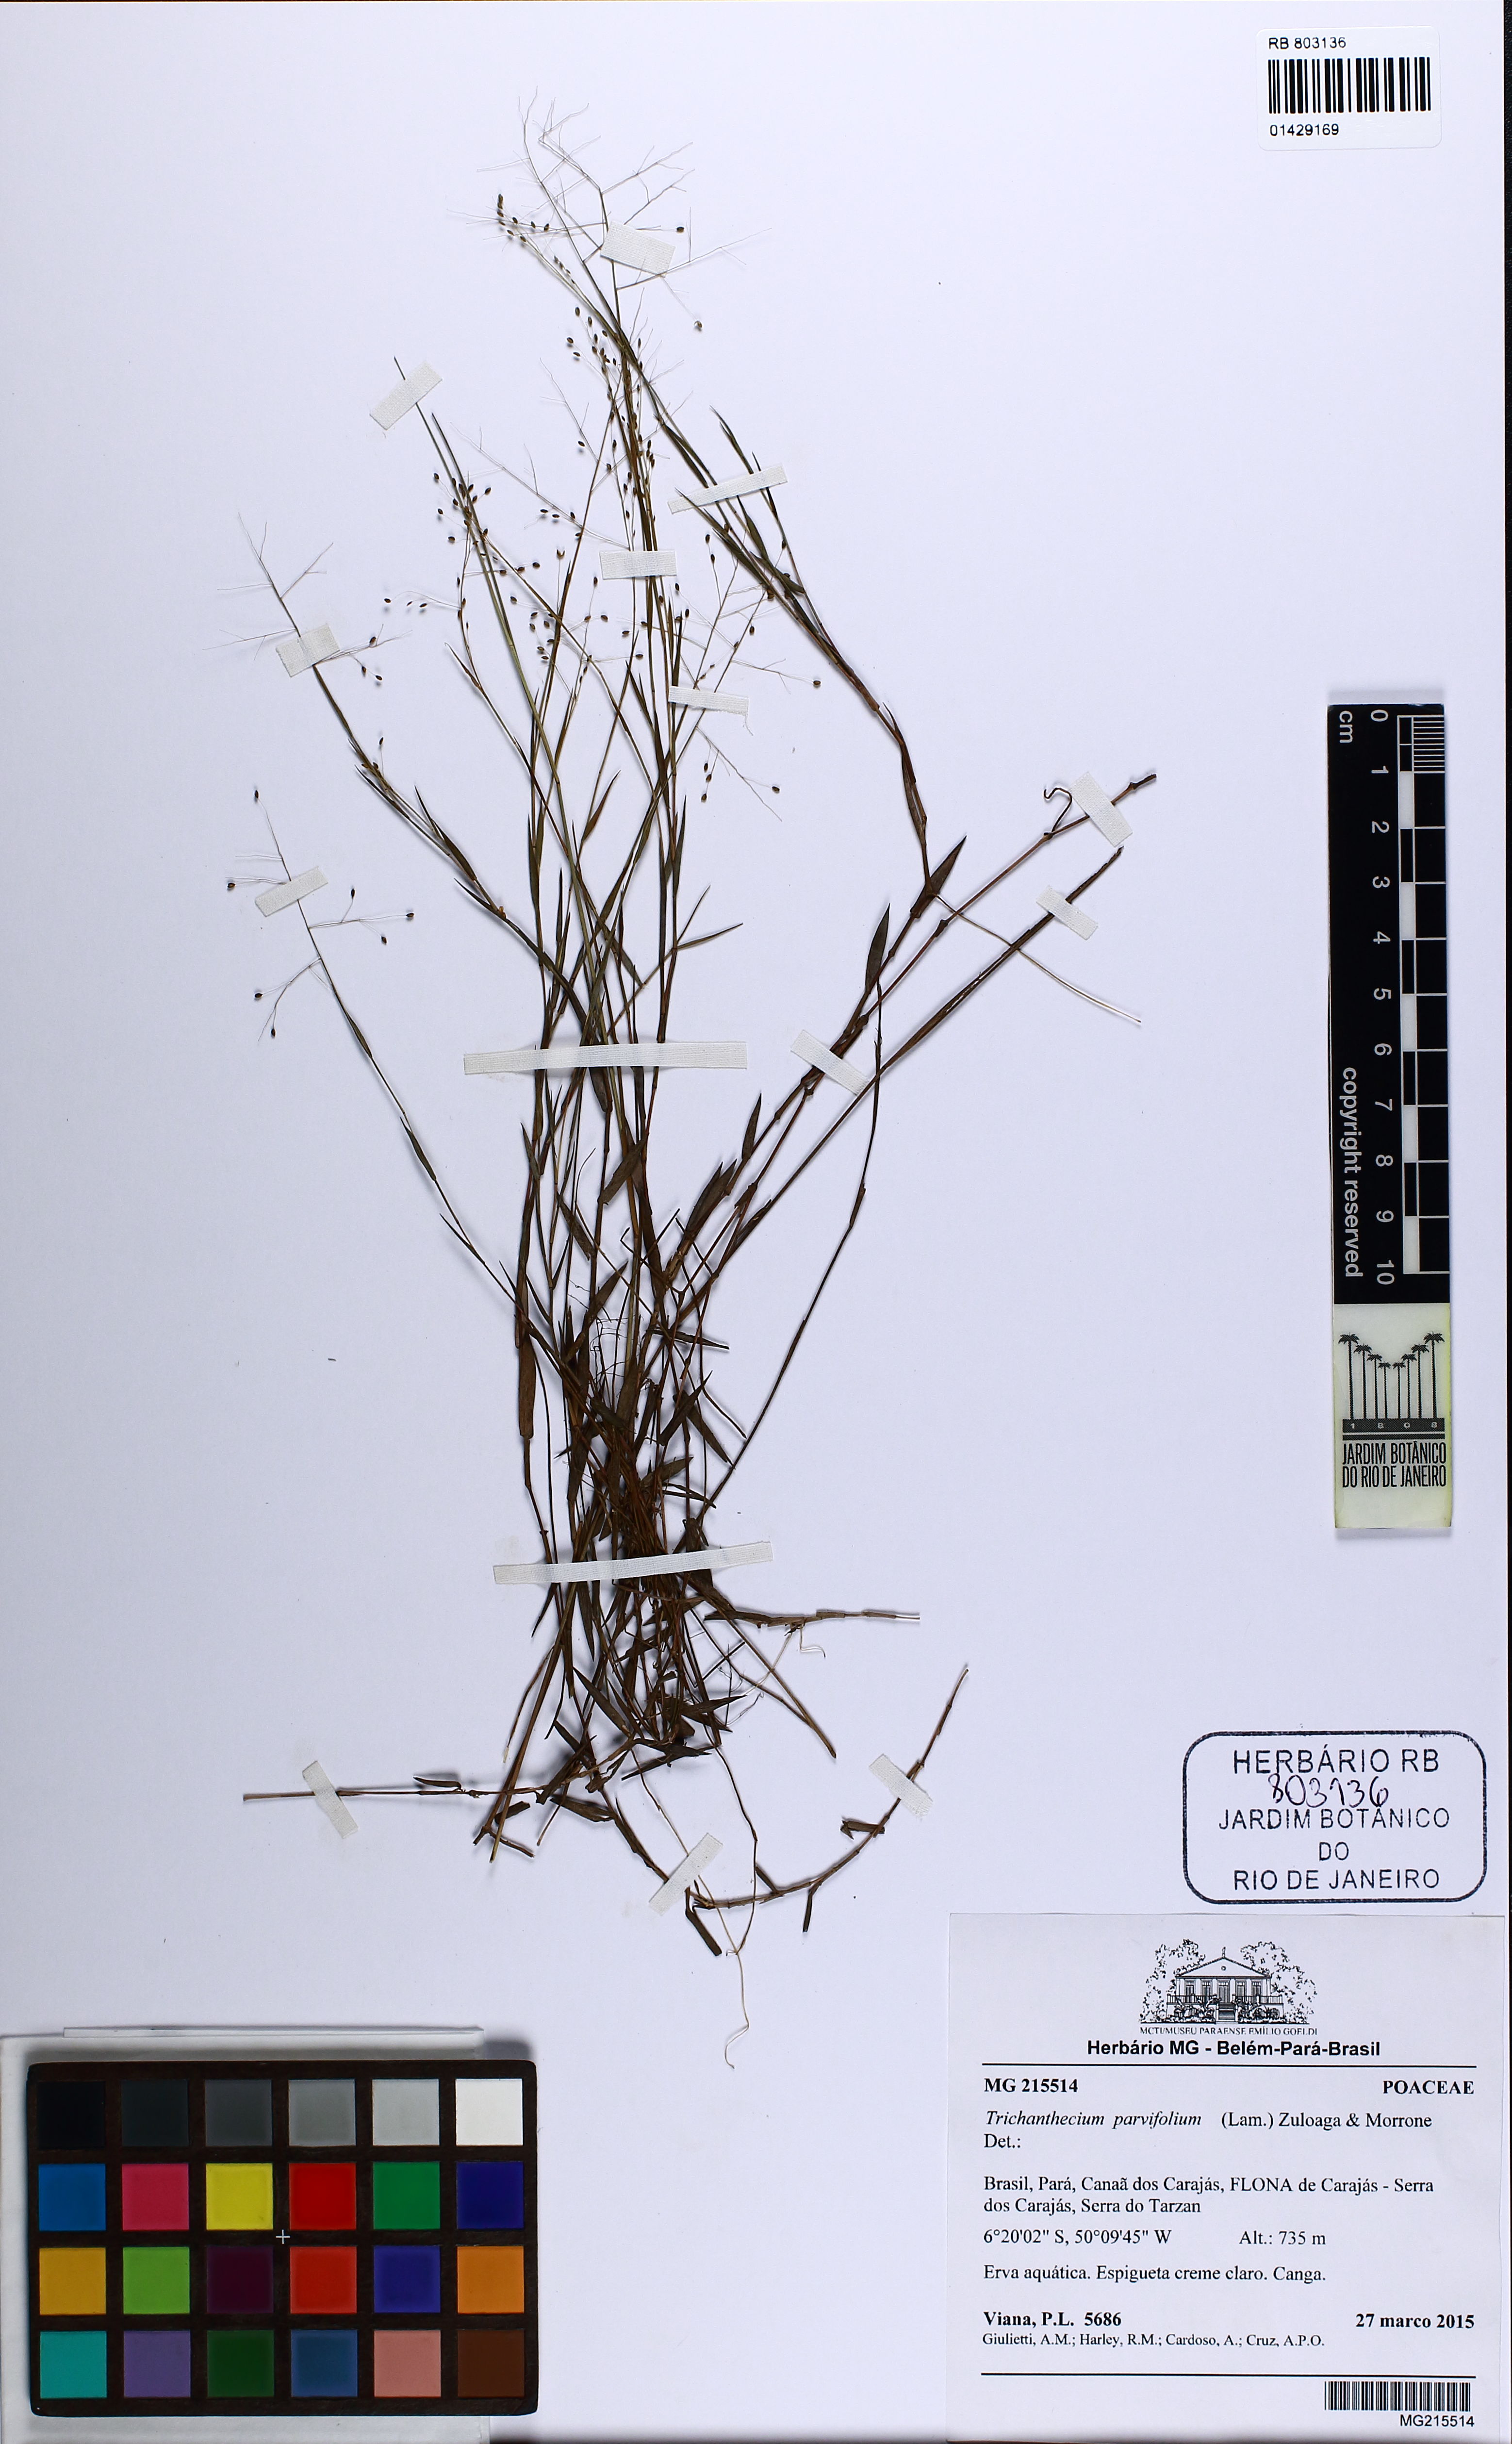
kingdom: Plantae
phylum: Tracheophyta
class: Liliopsida
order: Poales
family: Poaceae
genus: Trichanthecium
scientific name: Trichanthecium parvifolium
